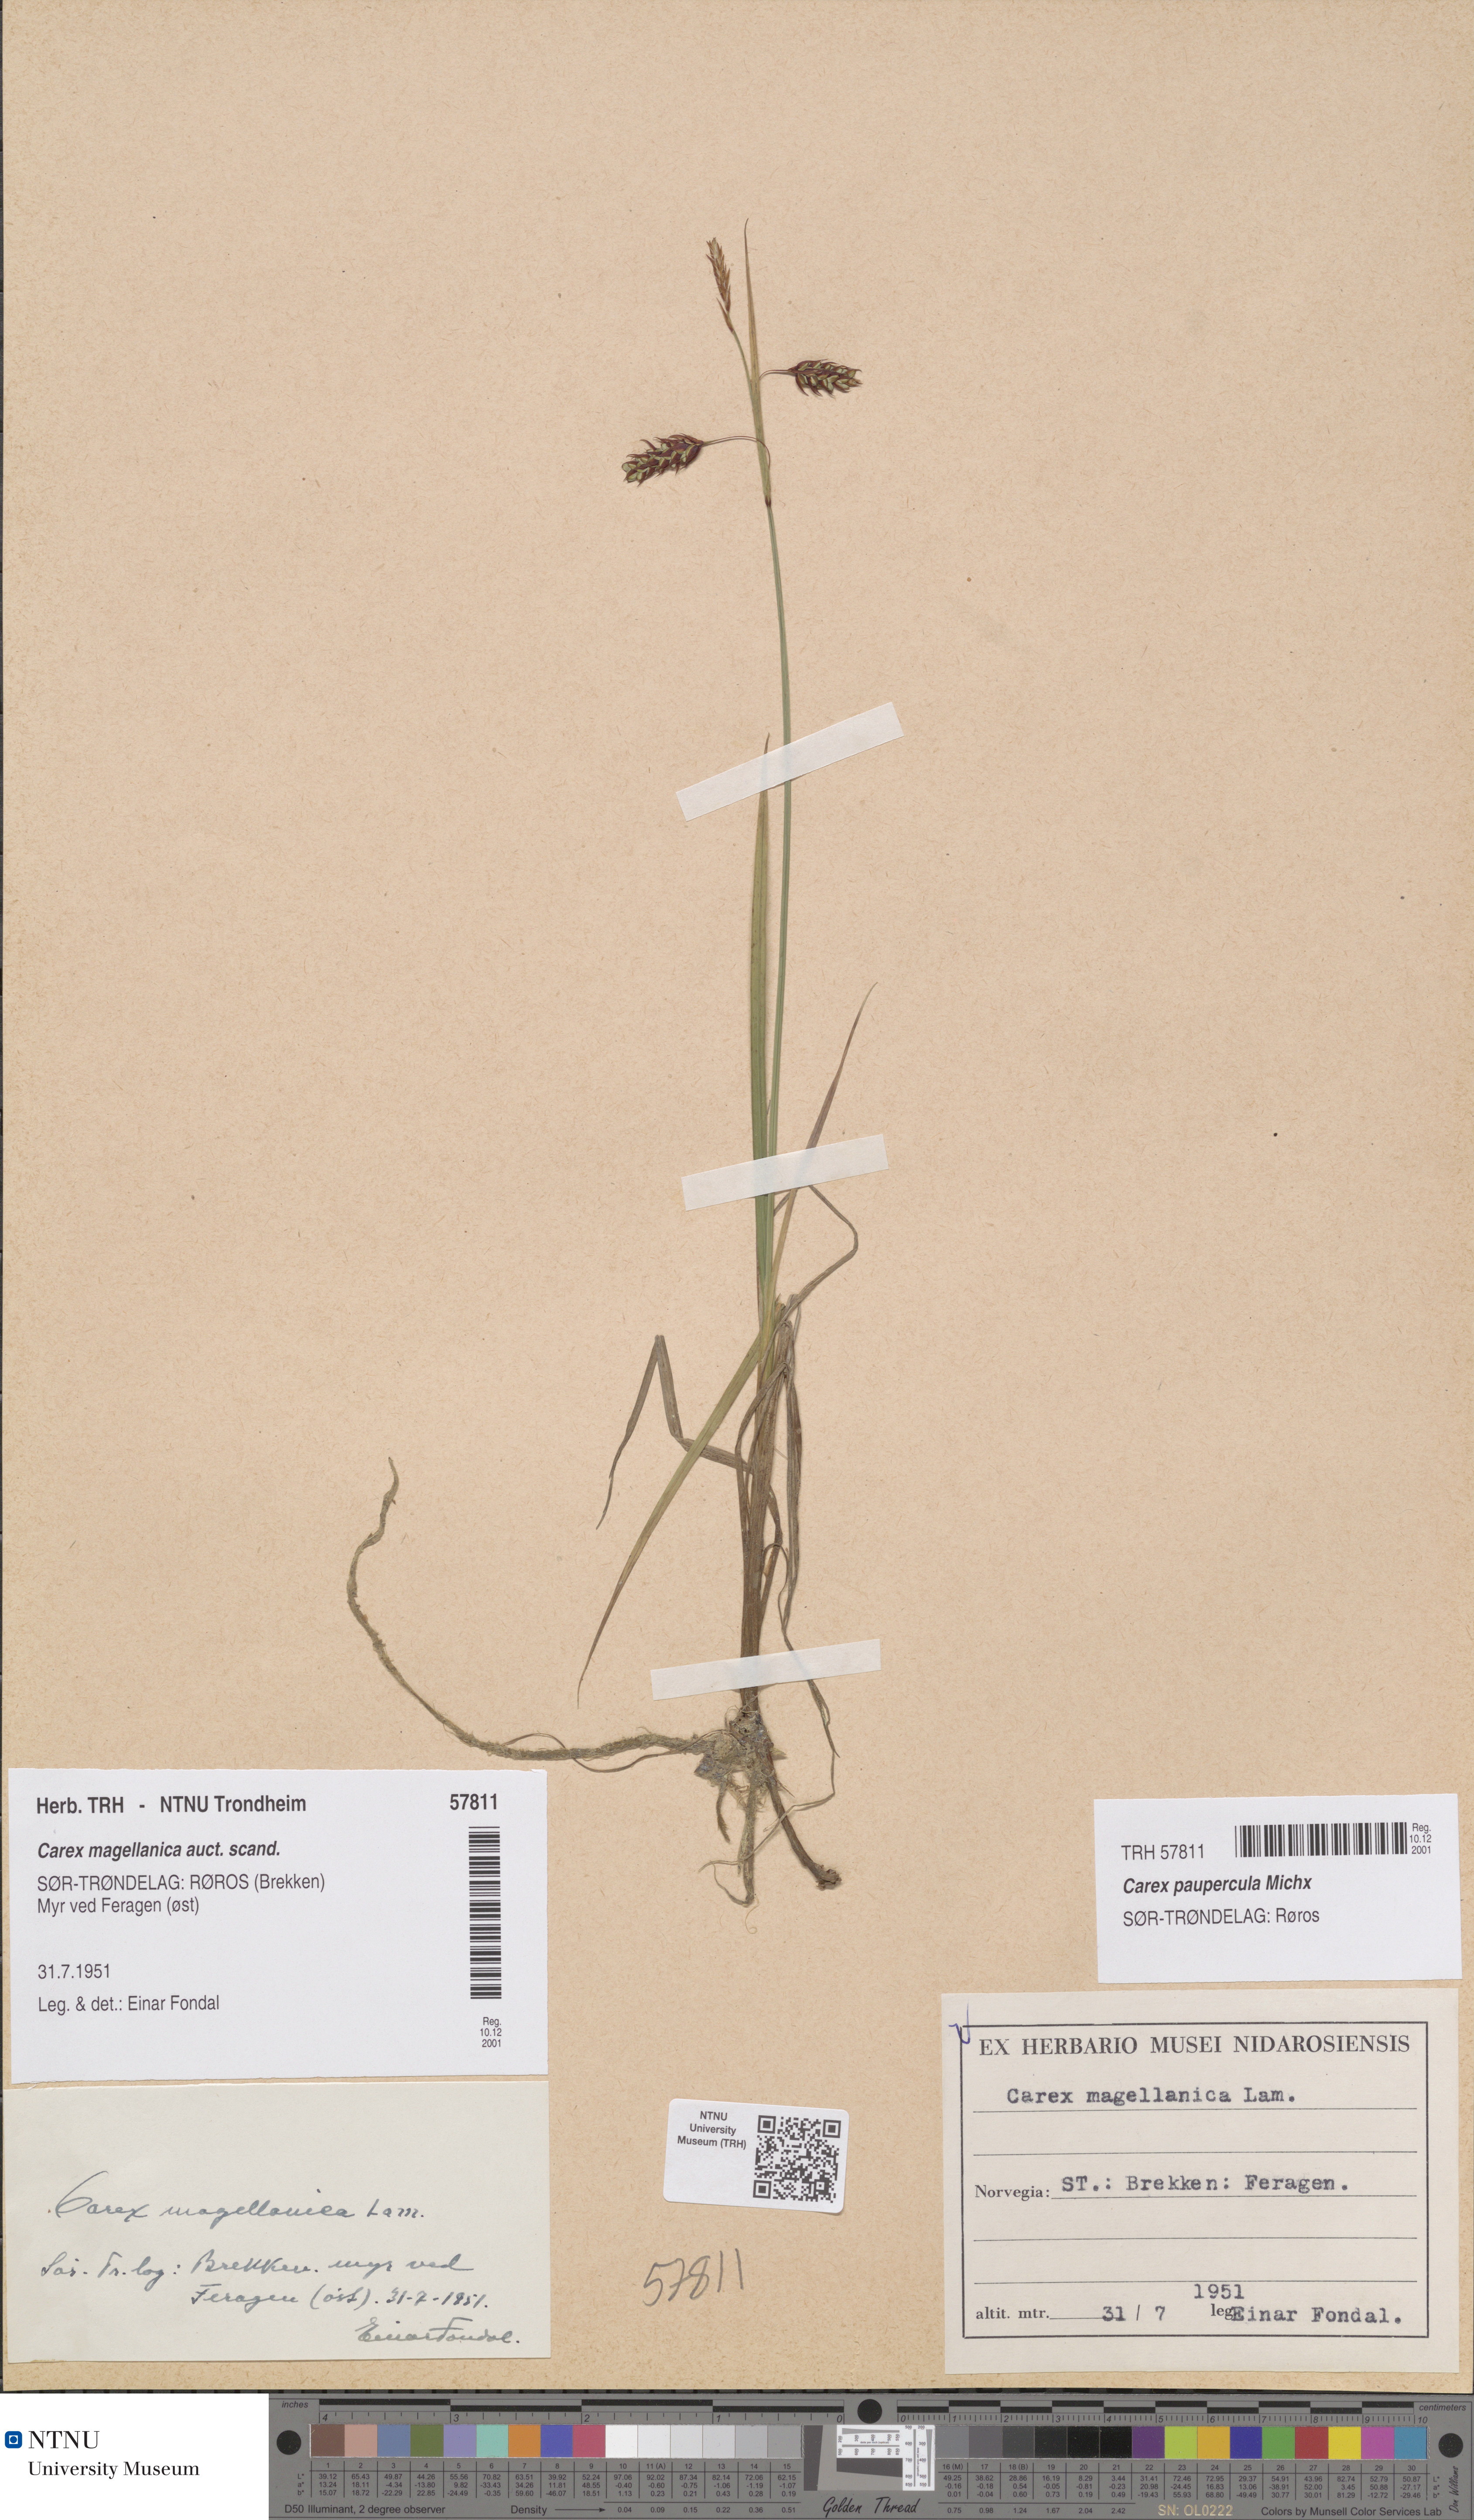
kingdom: Plantae
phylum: Tracheophyta
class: Liliopsida
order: Poales
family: Cyperaceae
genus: Carex
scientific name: Carex magellanica
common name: Bog sedge
